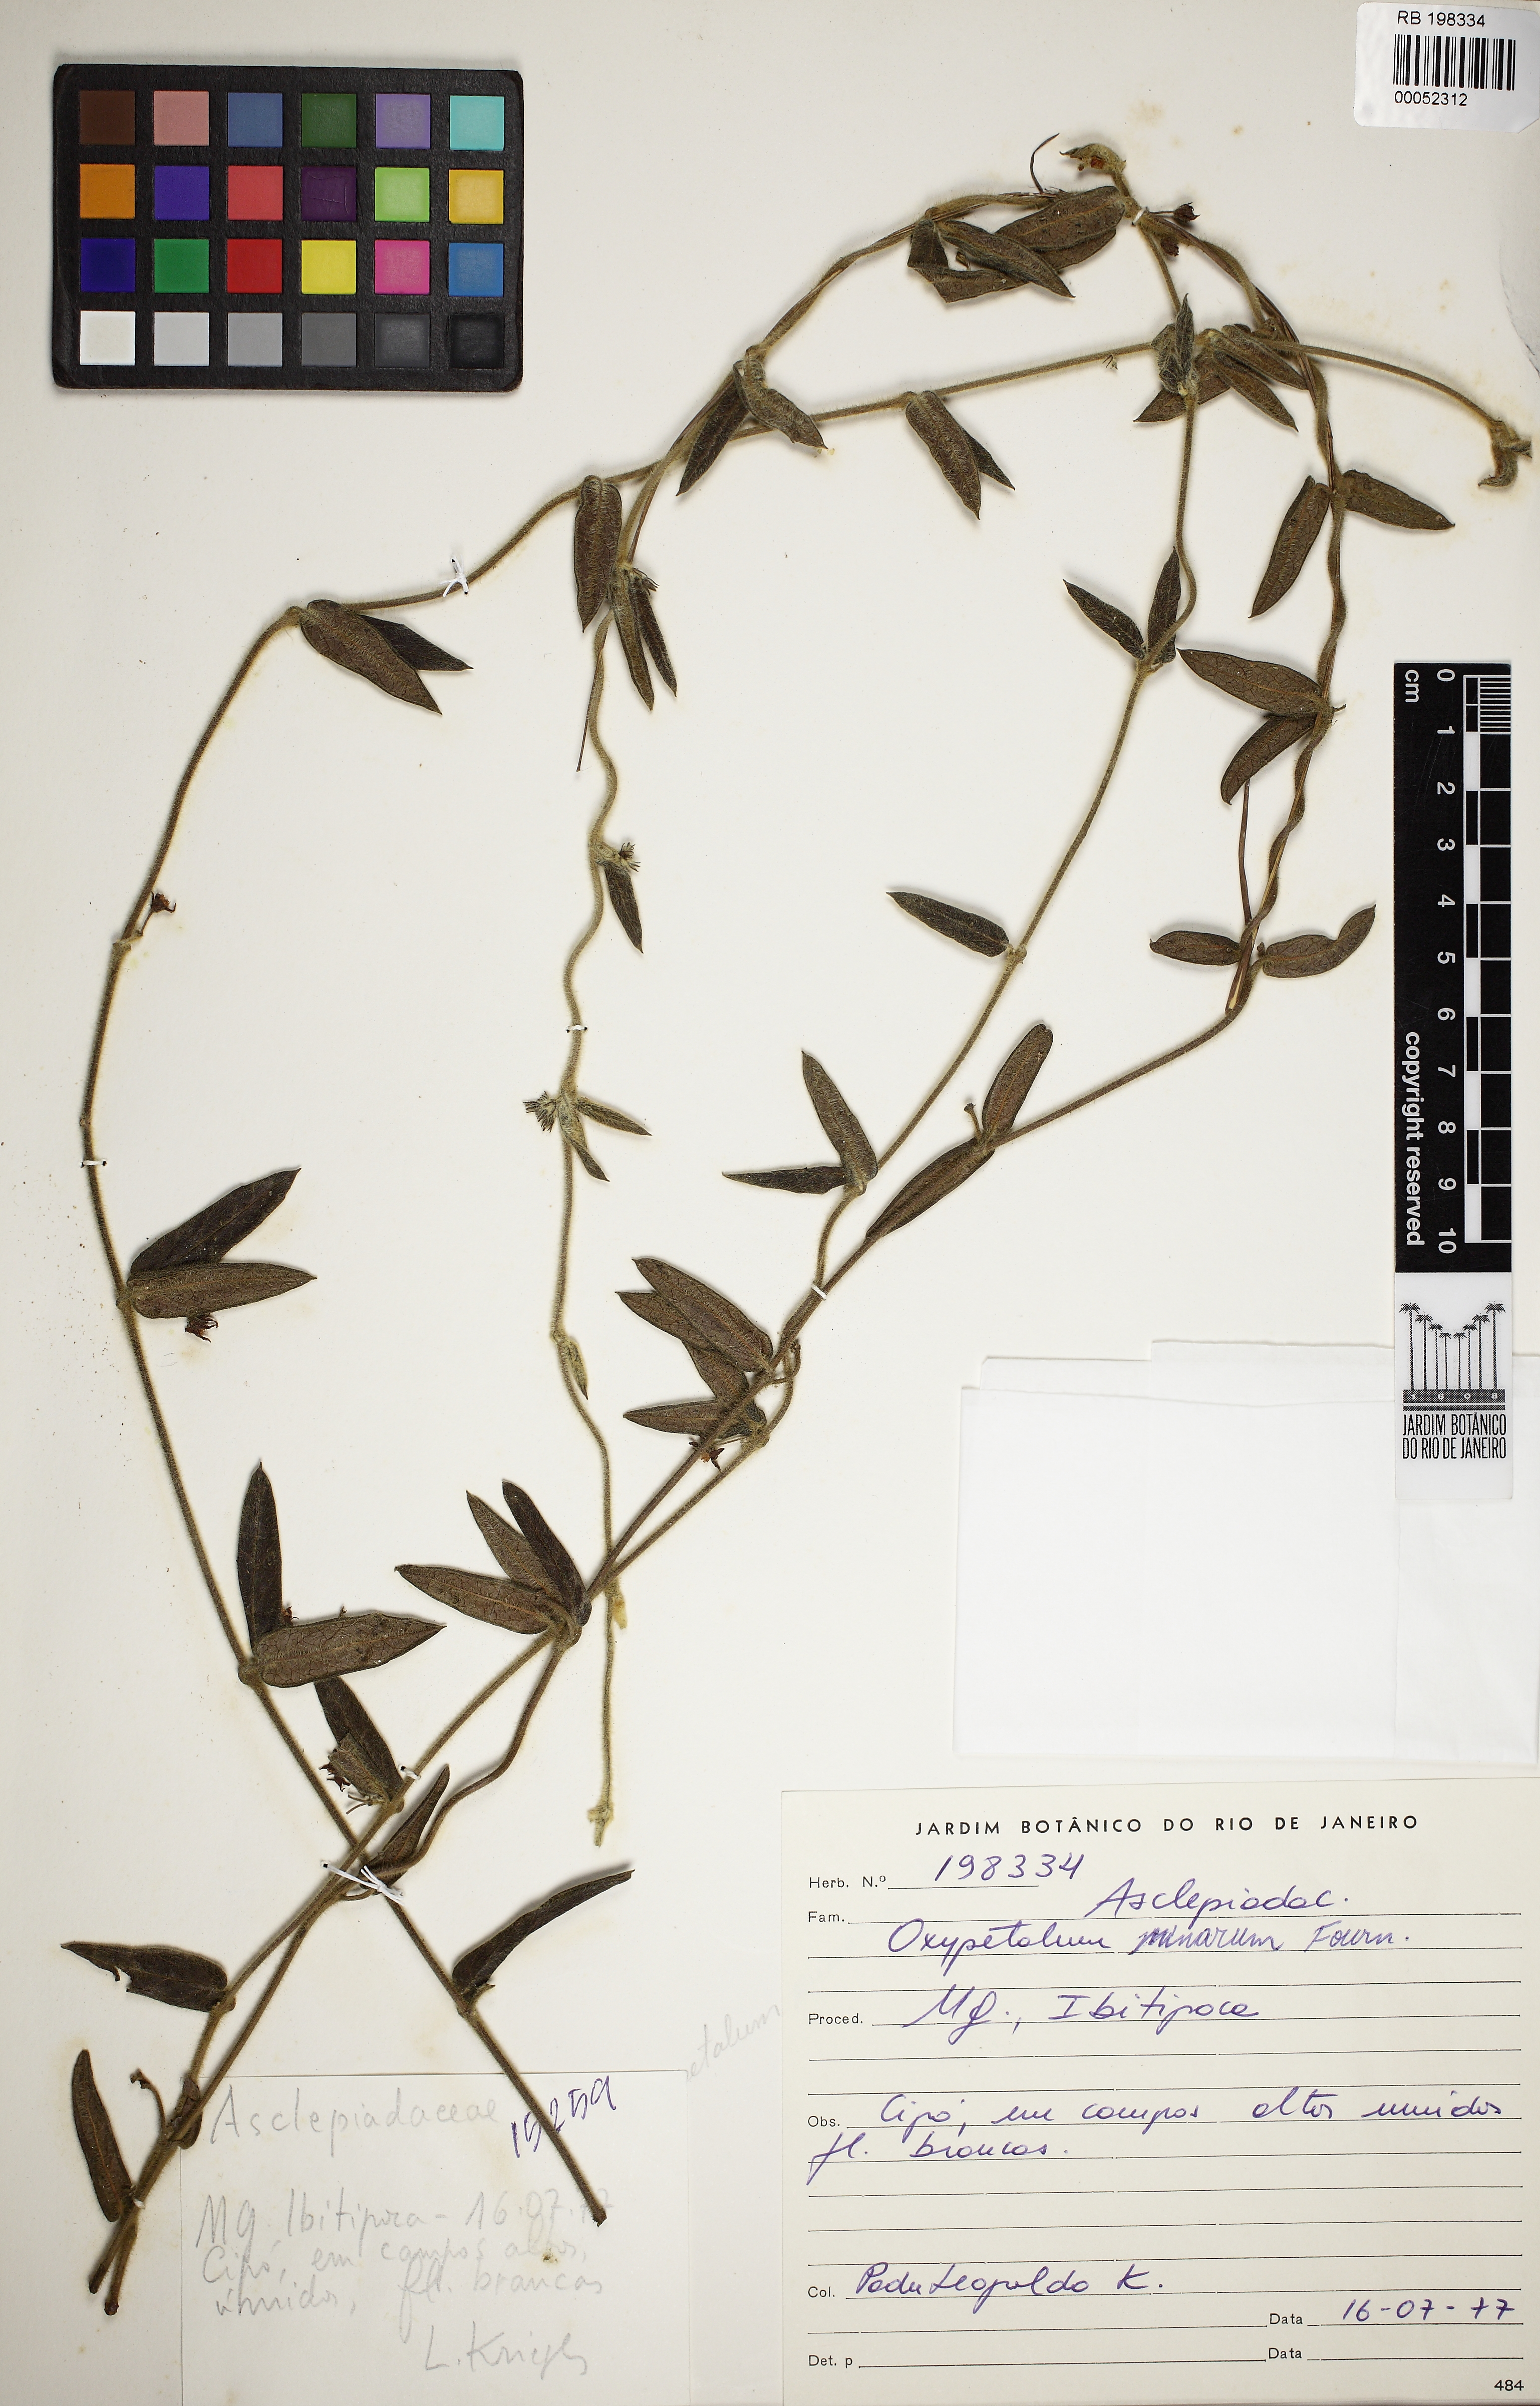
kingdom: Plantae
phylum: Tracheophyta
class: Magnoliopsida
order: Gentianales
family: Apocynaceae
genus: Oxypetalum
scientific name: Oxypetalum minarum
